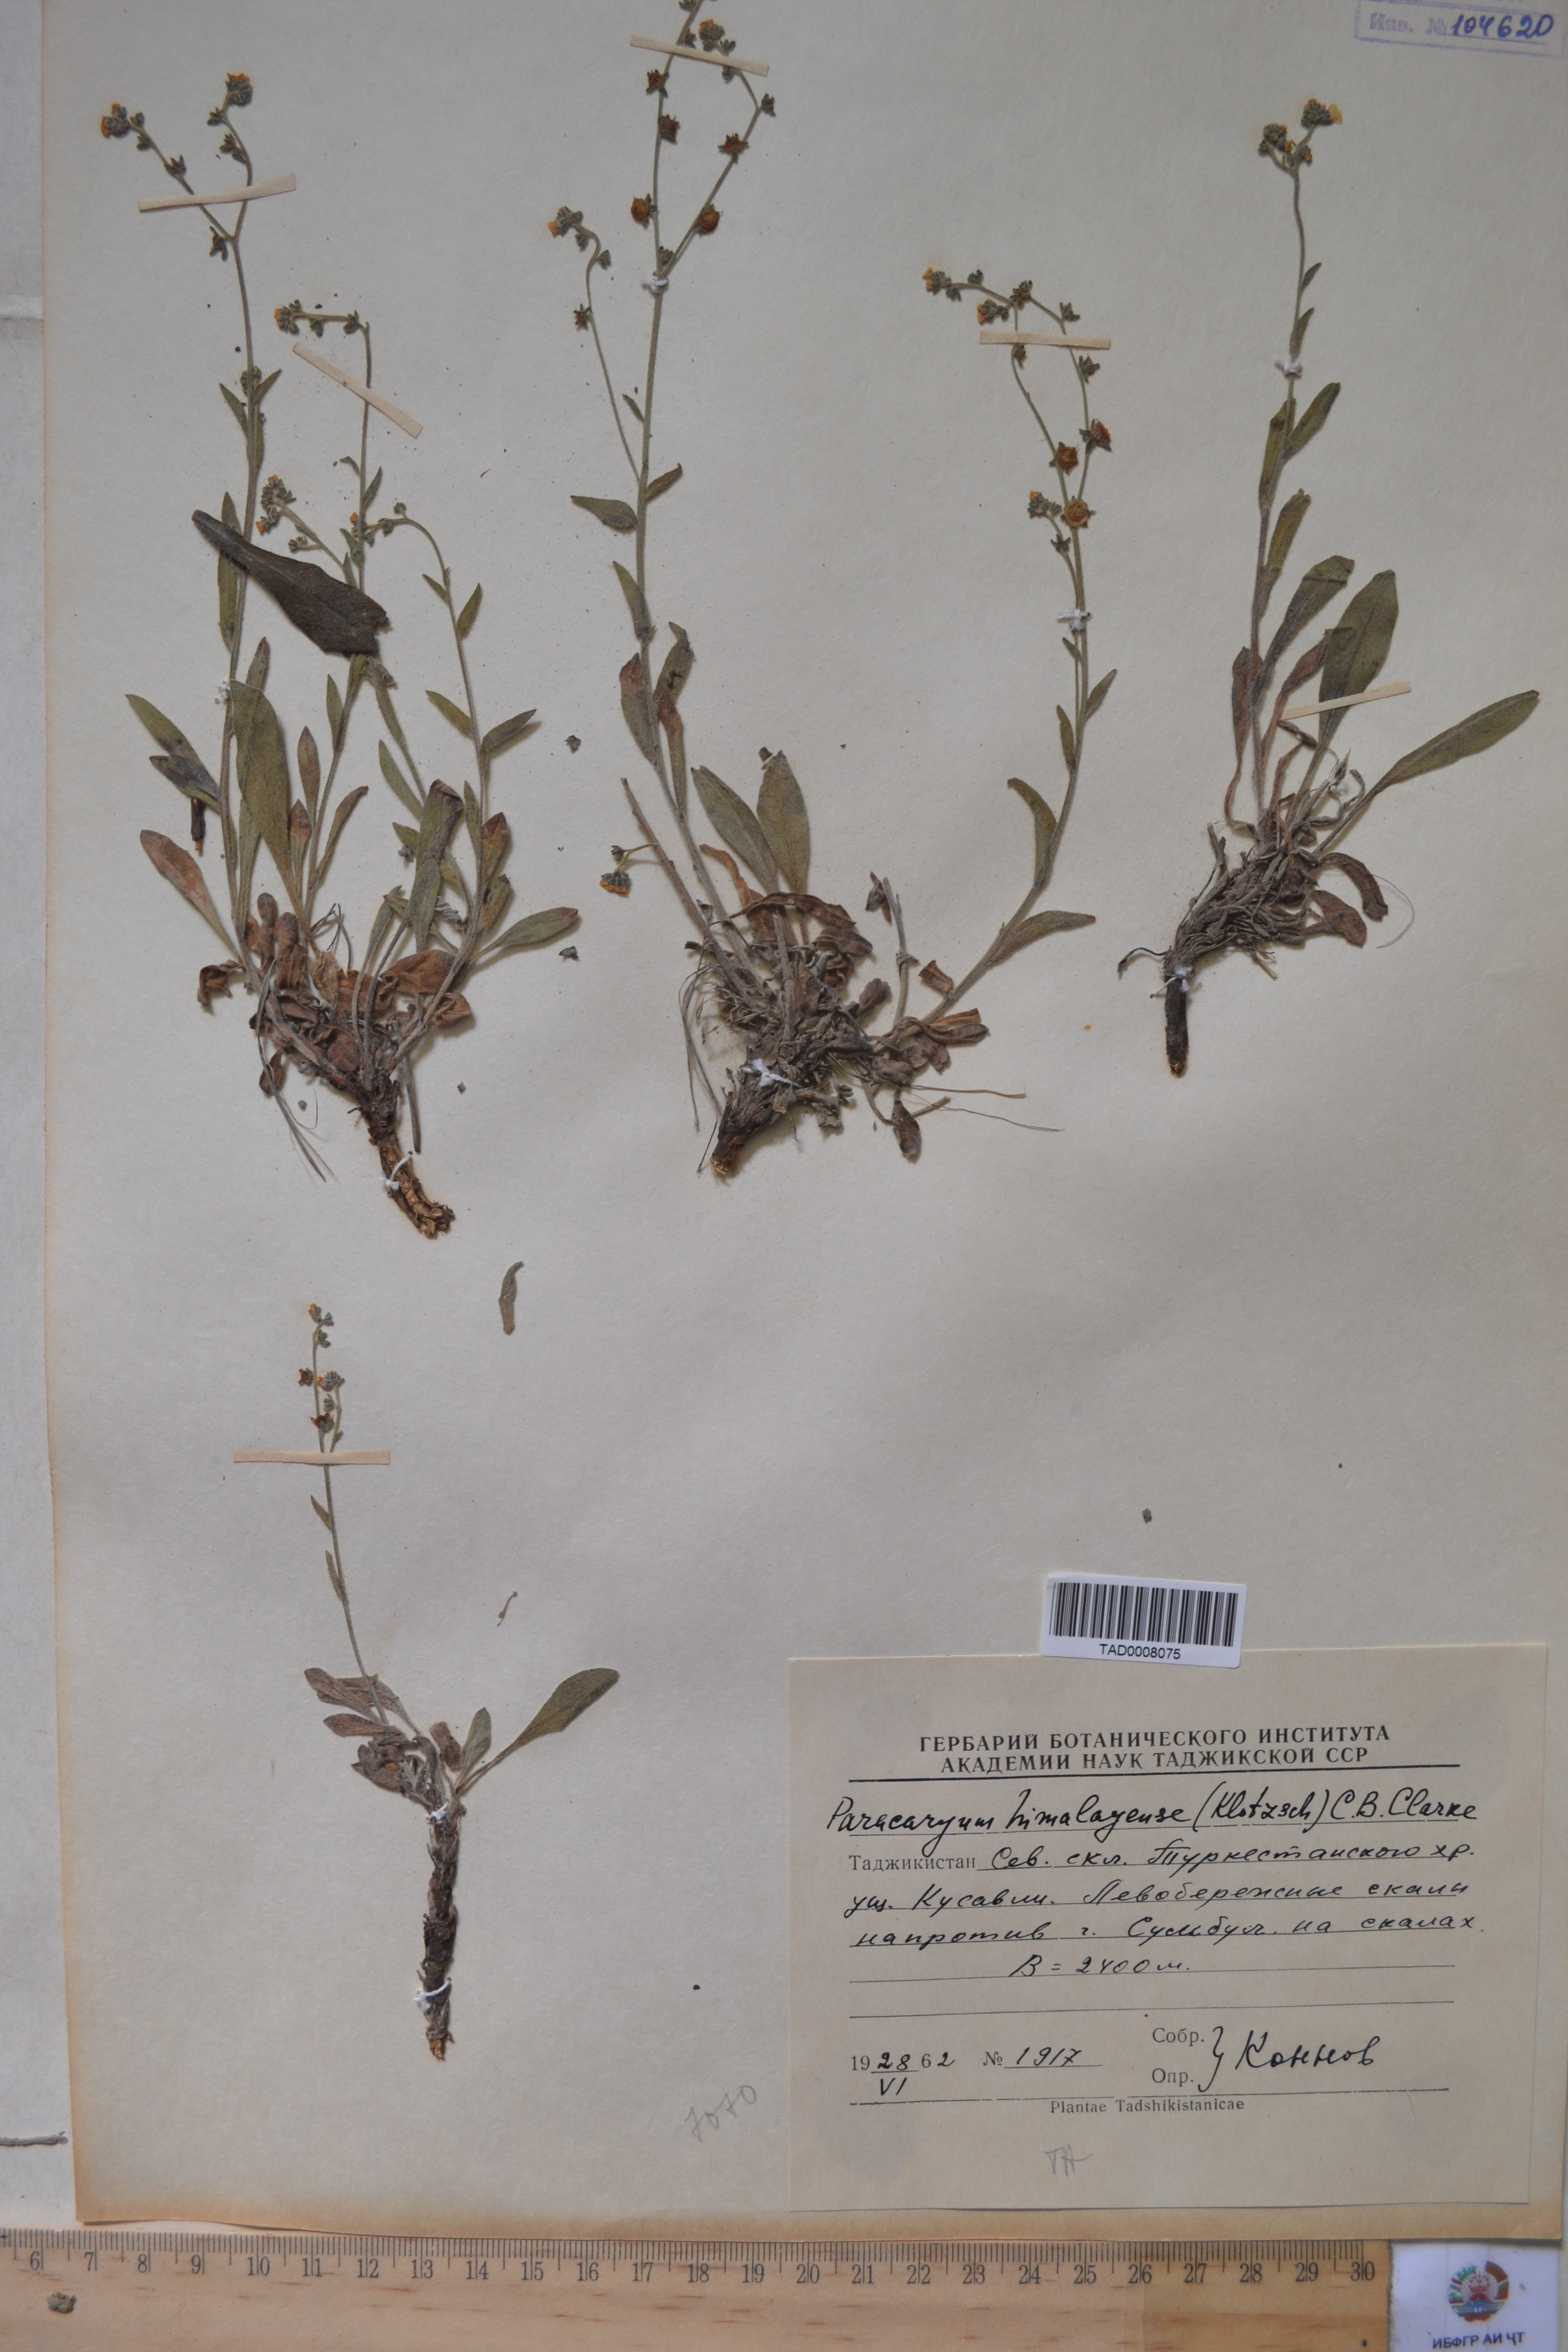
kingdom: Plantae
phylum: Tracheophyta
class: Magnoliopsida
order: Boraginales
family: Boraginaceae
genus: Paracaryum
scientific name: Paracaryum himalayense
